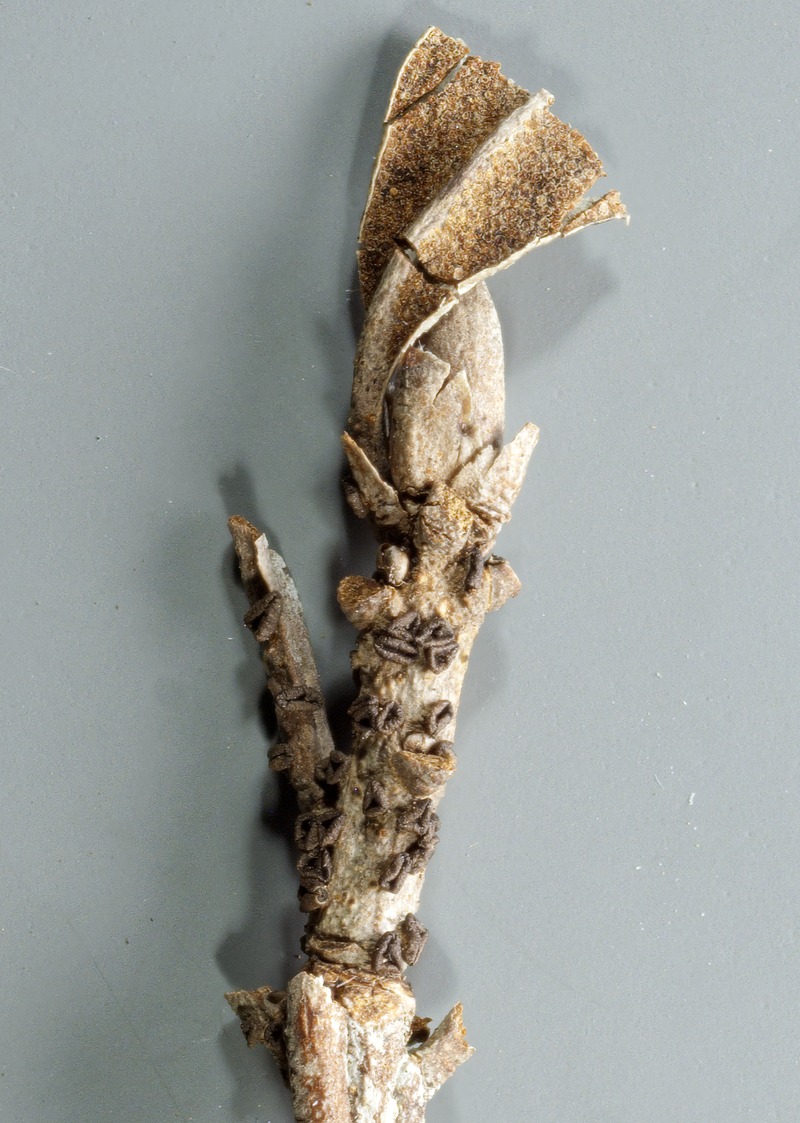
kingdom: Fungi
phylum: Ascomycota
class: Leotiomycetes
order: Helotiales
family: Helotiaceae
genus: Encoeliopsis
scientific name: Encoeliopsis rhododendri
